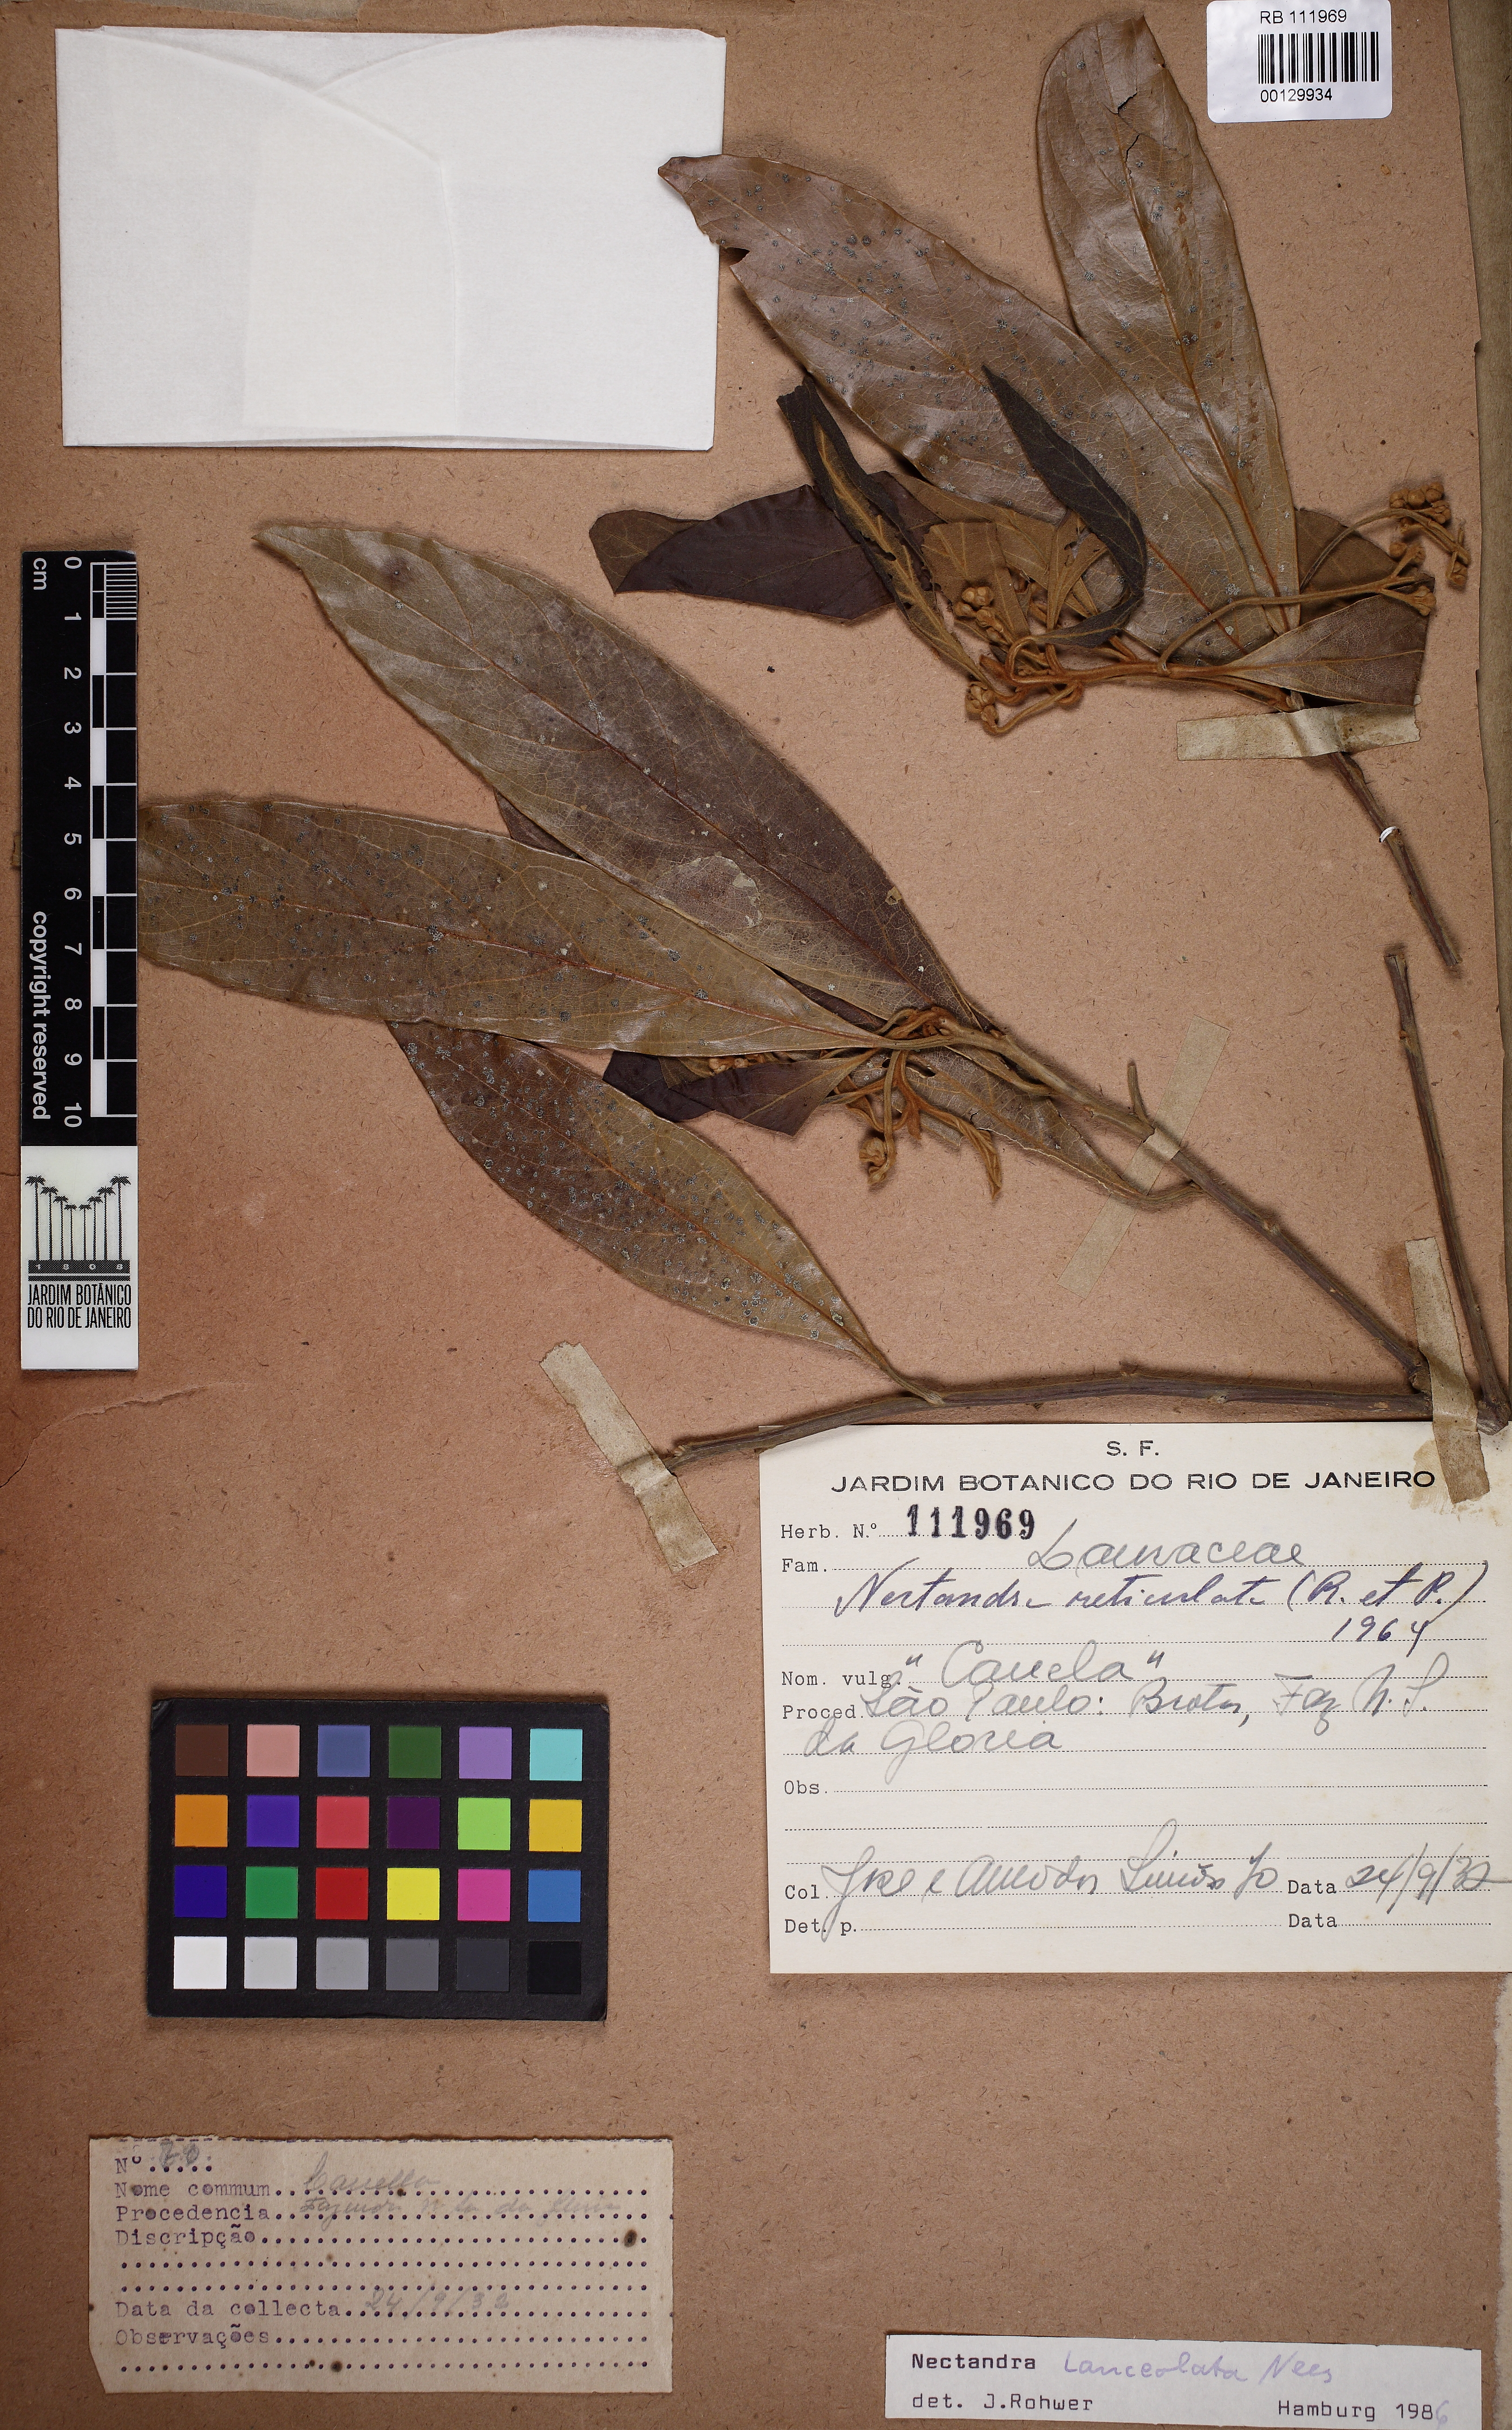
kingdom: Plantae
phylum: Tracheophyta
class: Magnoliopsida
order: Laurales
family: Lauraceae
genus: Nectandra
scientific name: Nectandra lanceolata
